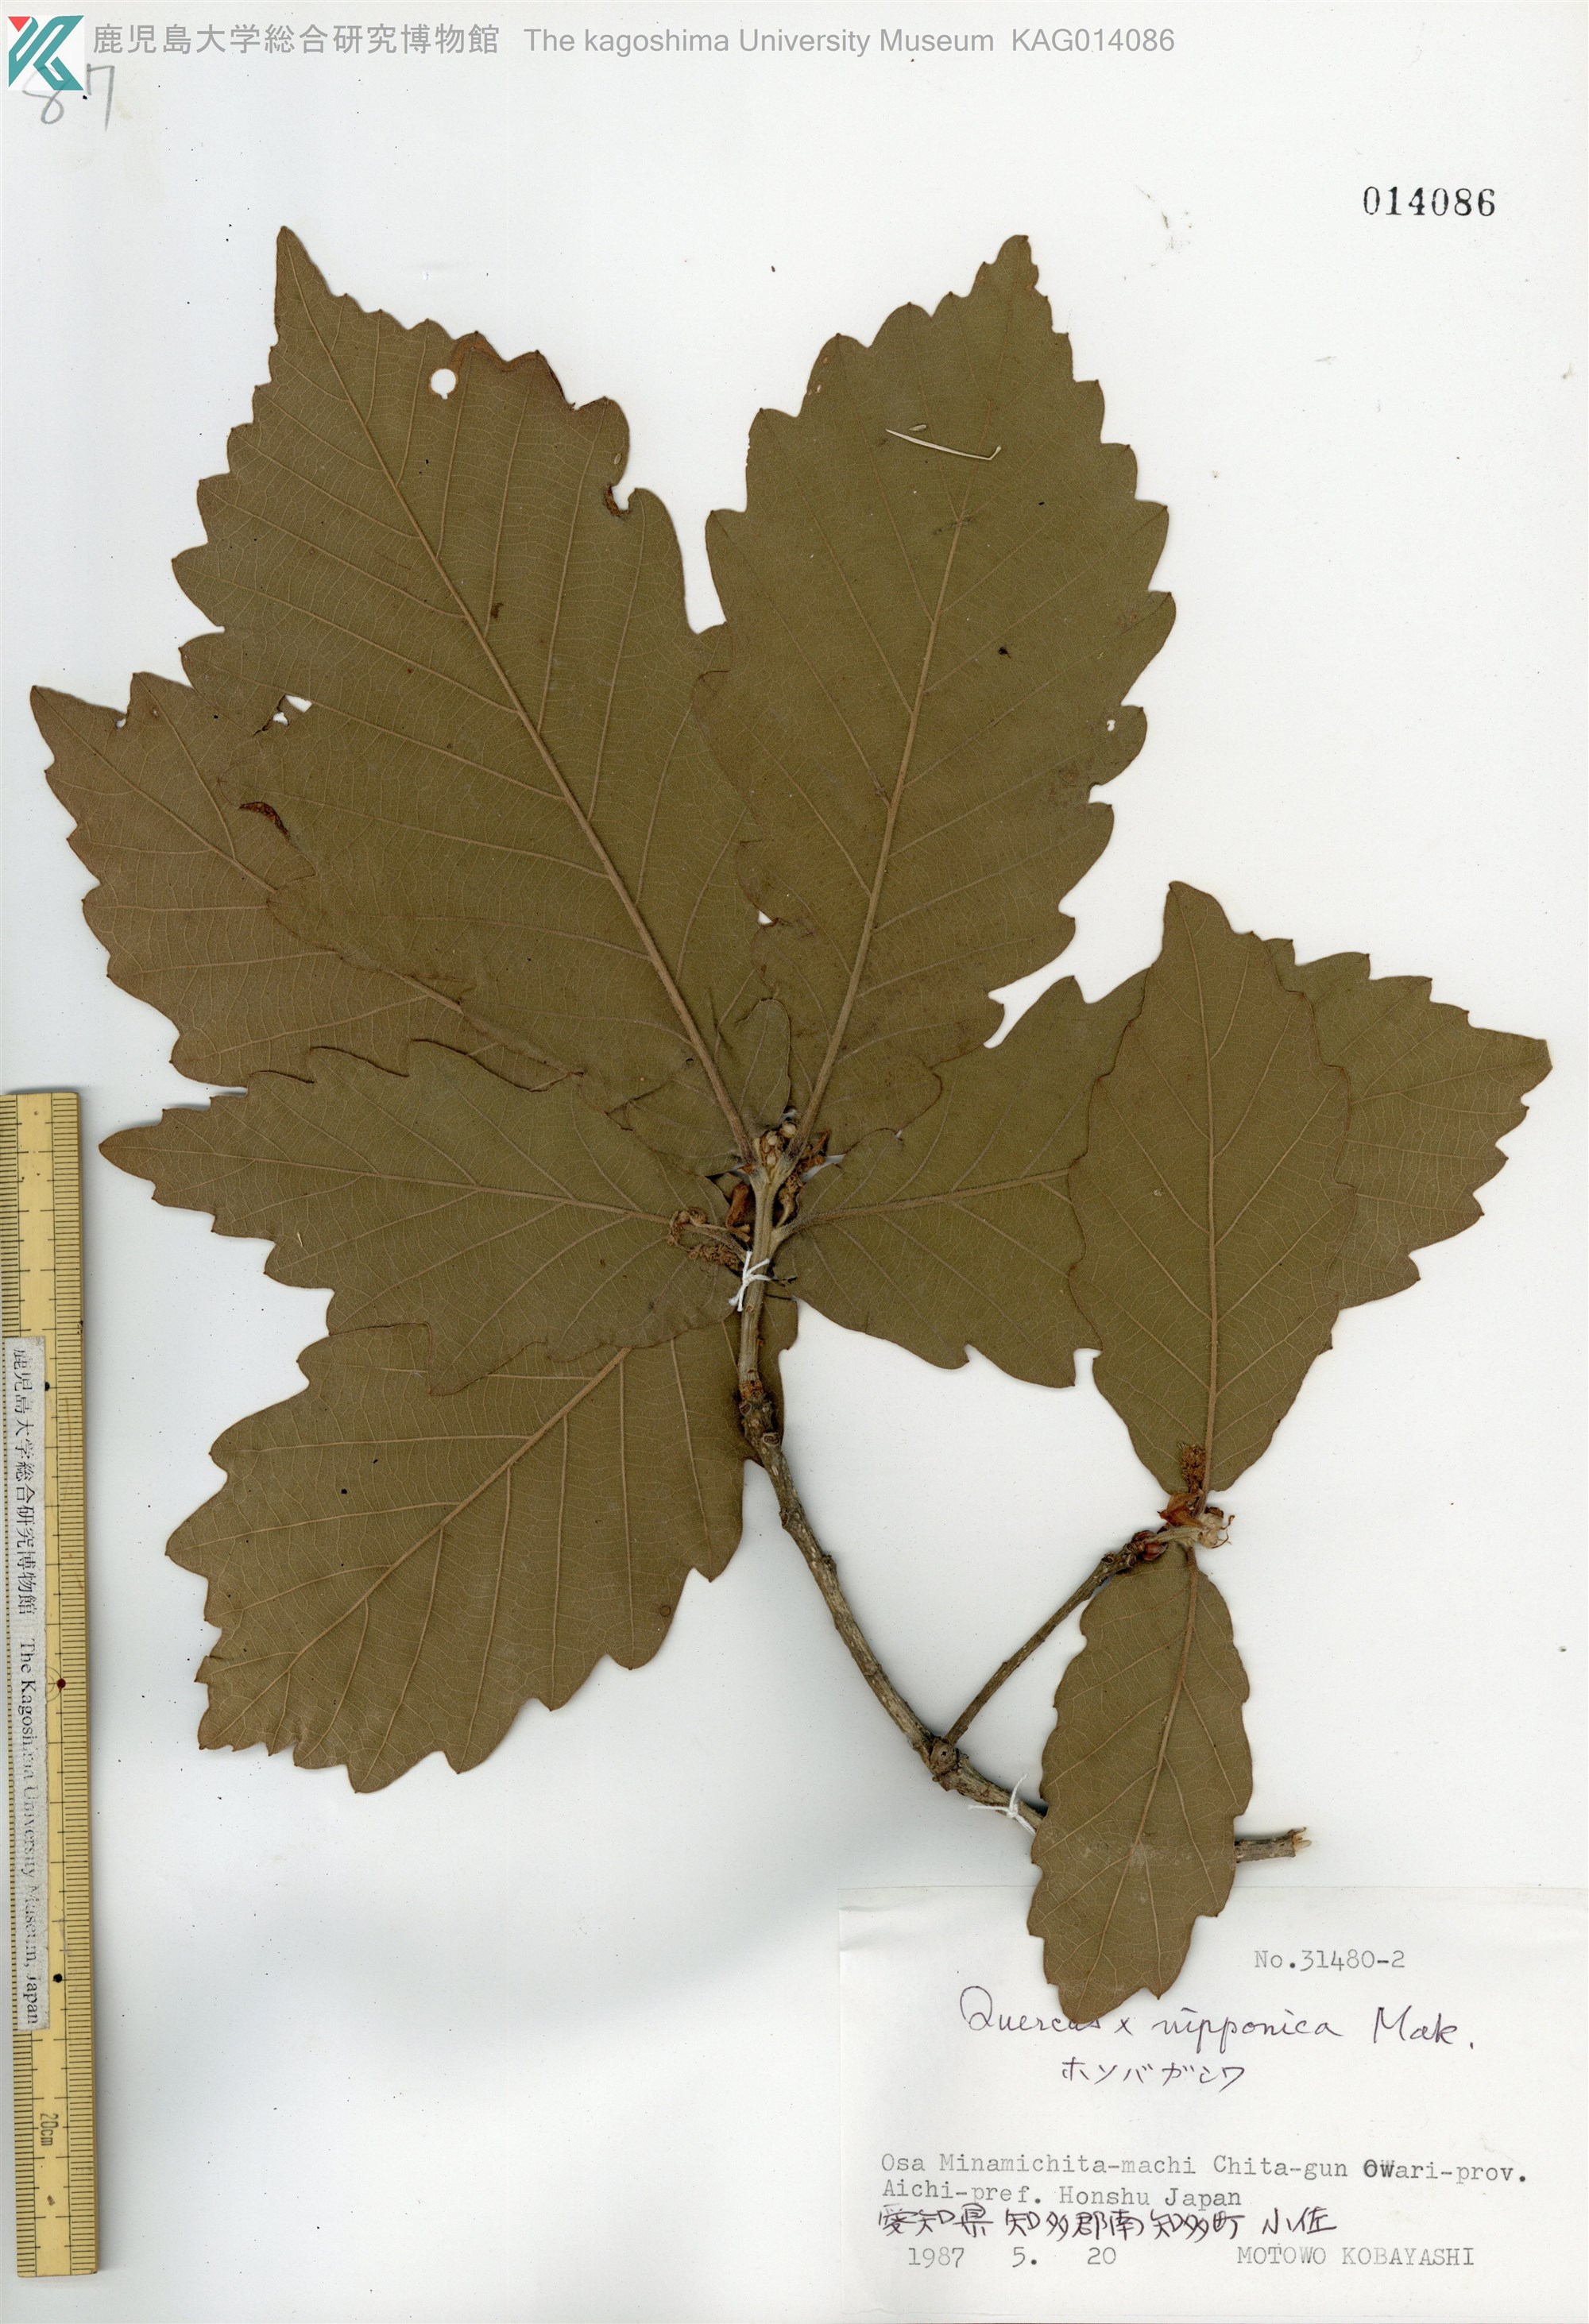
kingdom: Plantae
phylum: Tracheophyta
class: Magnoliopsida
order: Fagales
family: Fagaceae
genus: Quercus
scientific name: Quercus nipponica
